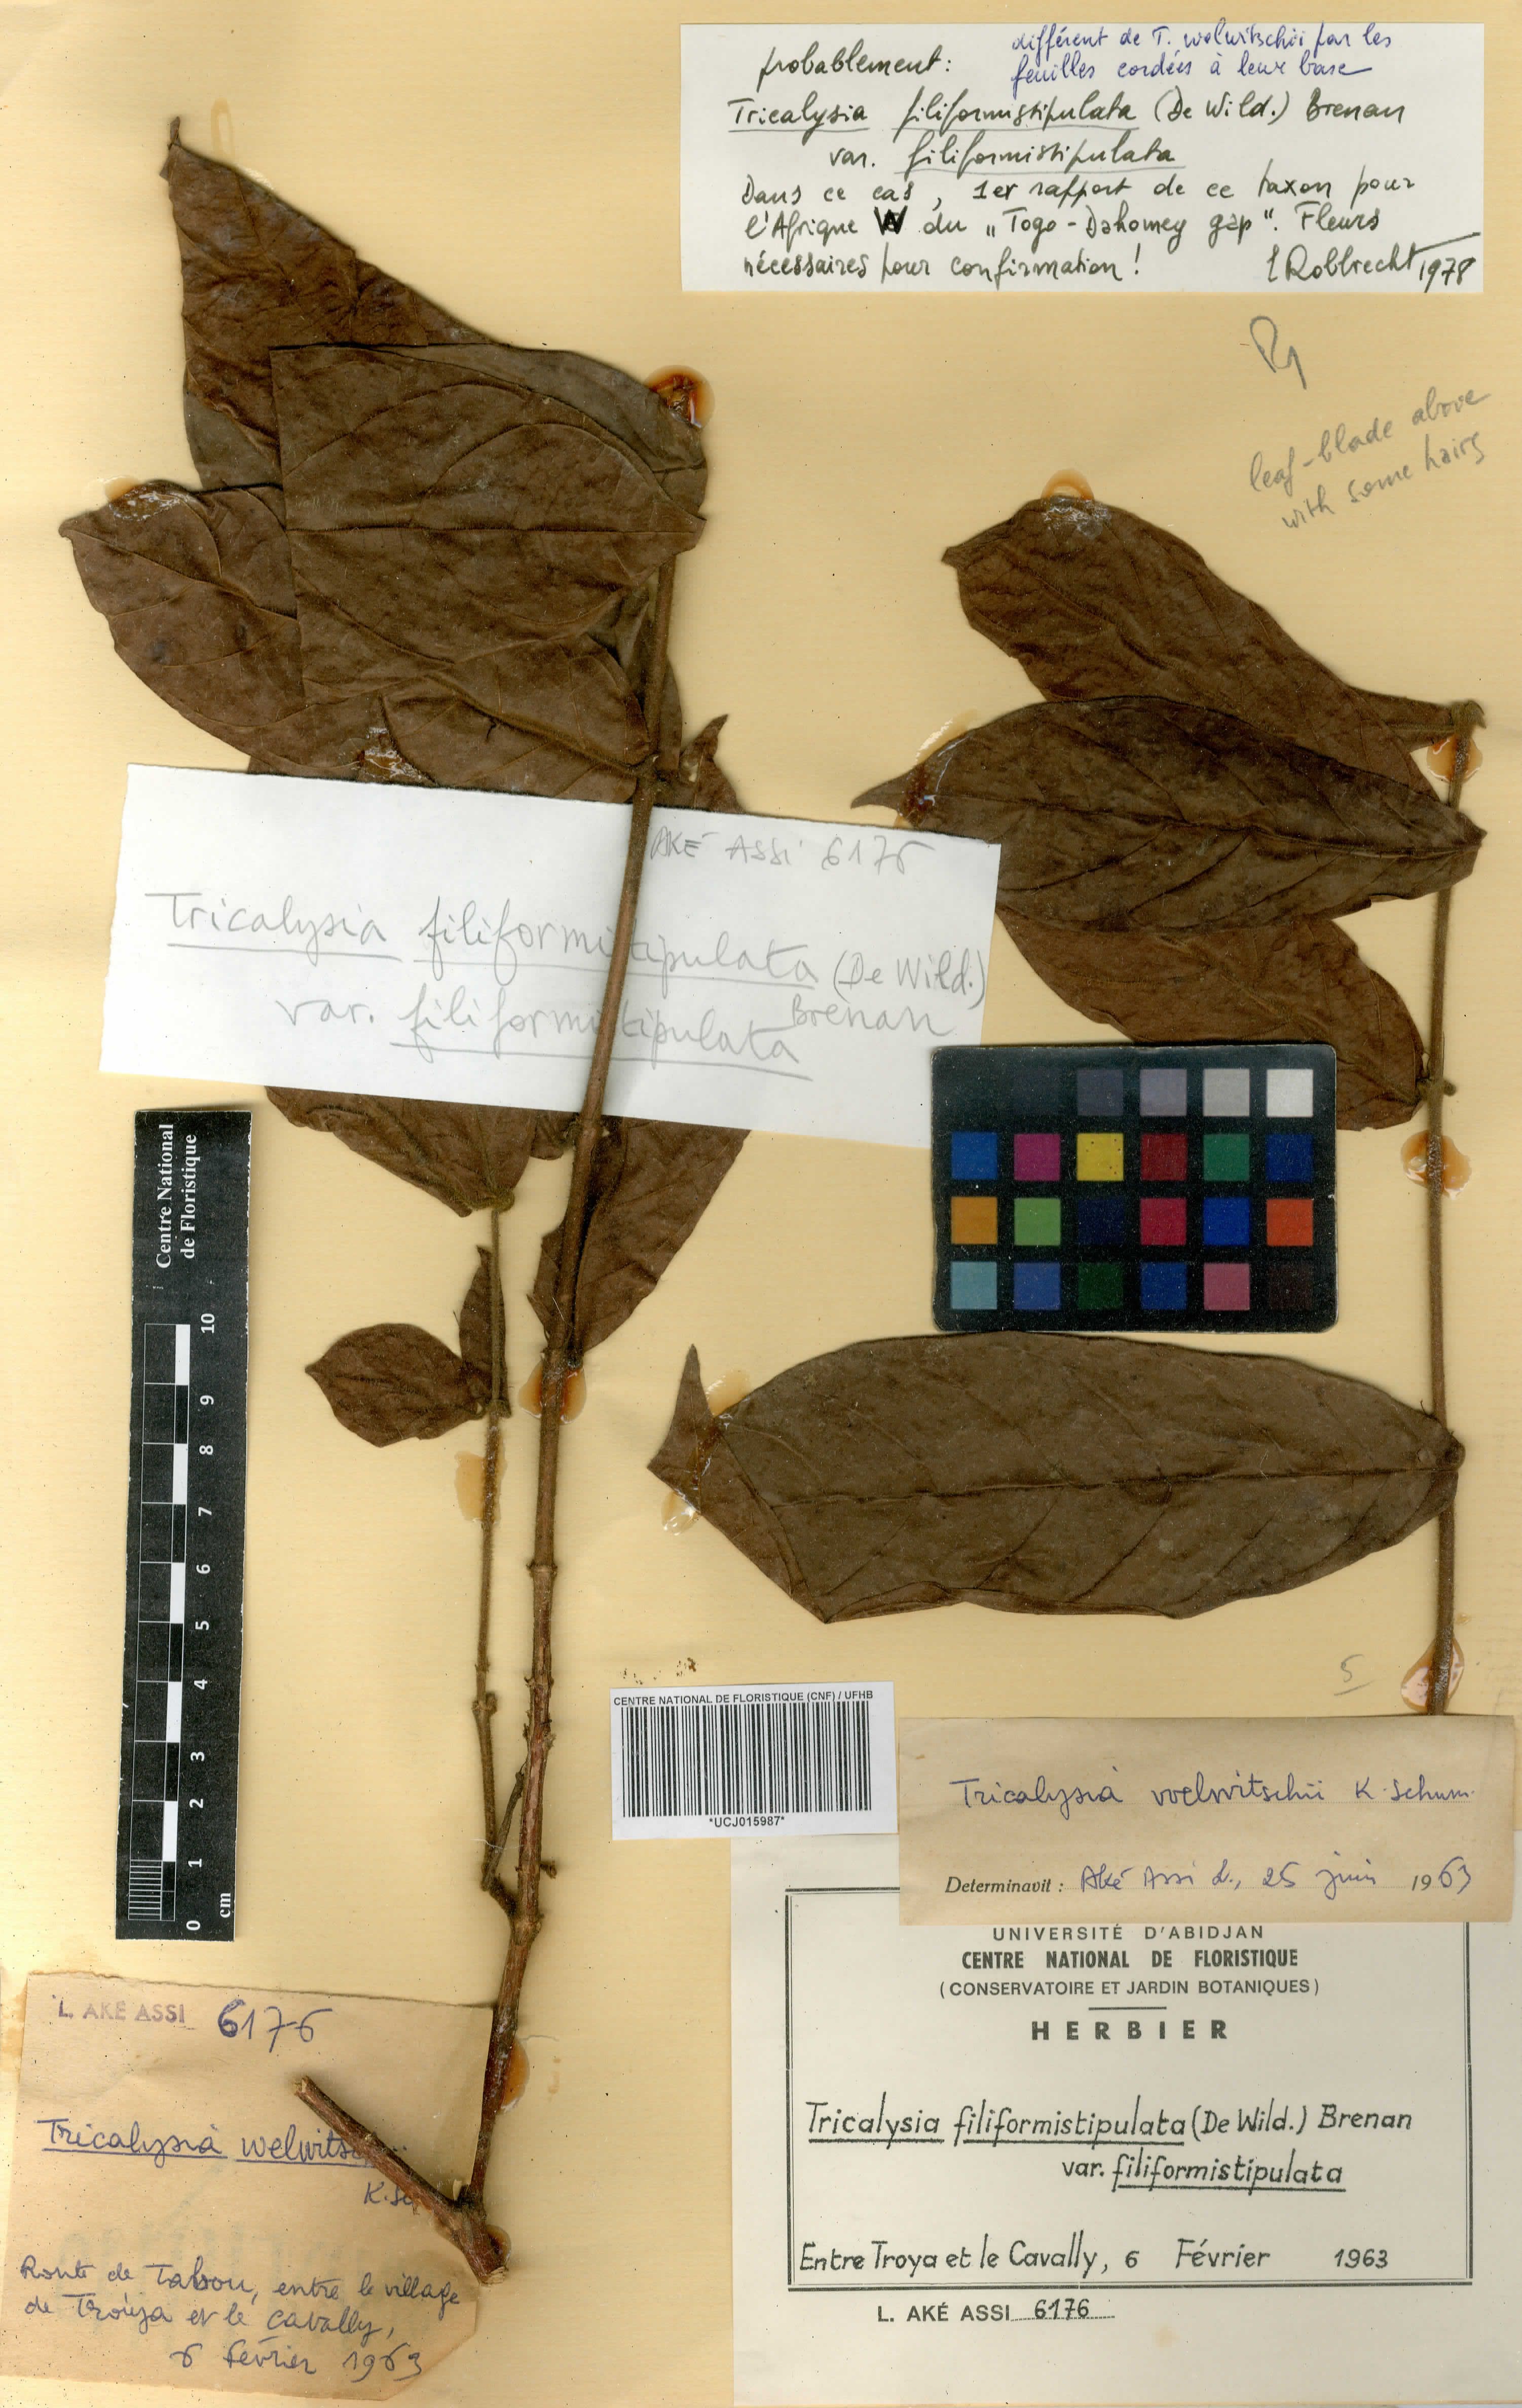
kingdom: Plantae
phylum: Tracheophyta
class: Magnoliopsida
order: Gentianales
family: Rubiaceae
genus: Empogona
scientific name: Empogona filiformistipulata
